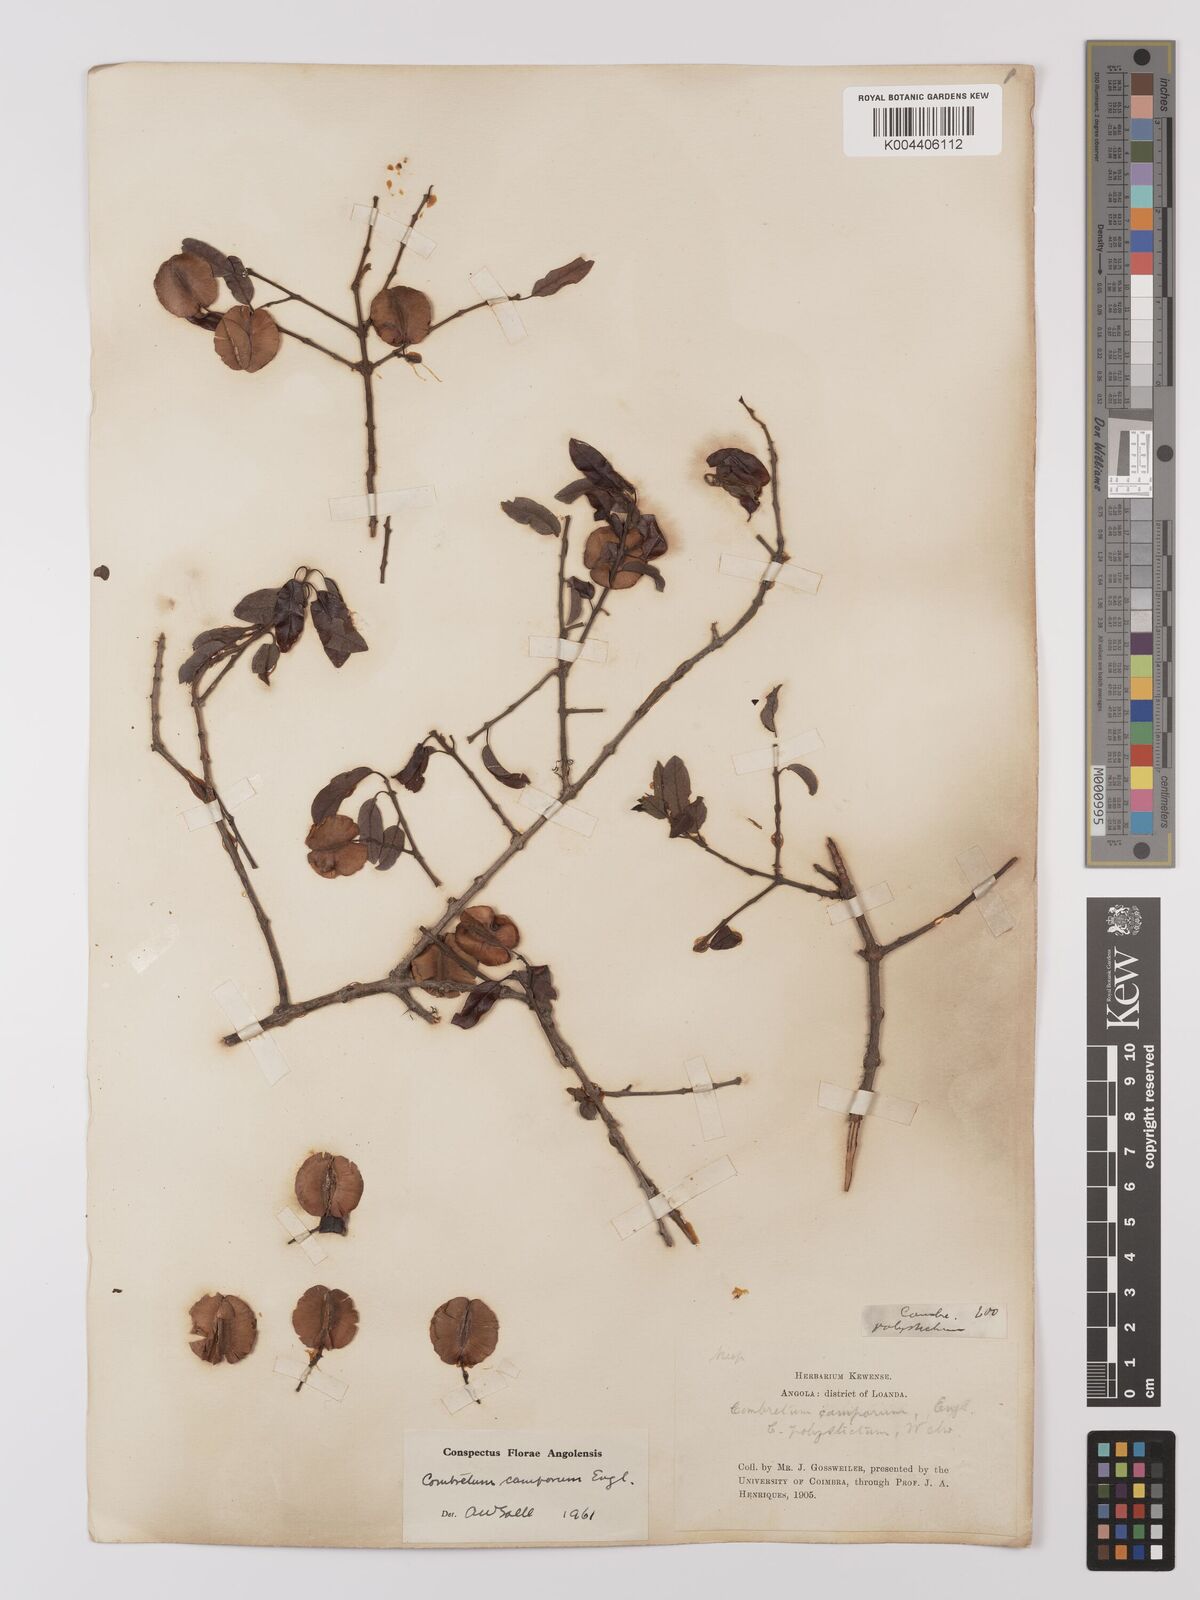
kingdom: Plantae
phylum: Tracheophyta
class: Magnoliopsida
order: Myrtales
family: Combretaceae
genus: Combretum
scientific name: Combretum camporum
